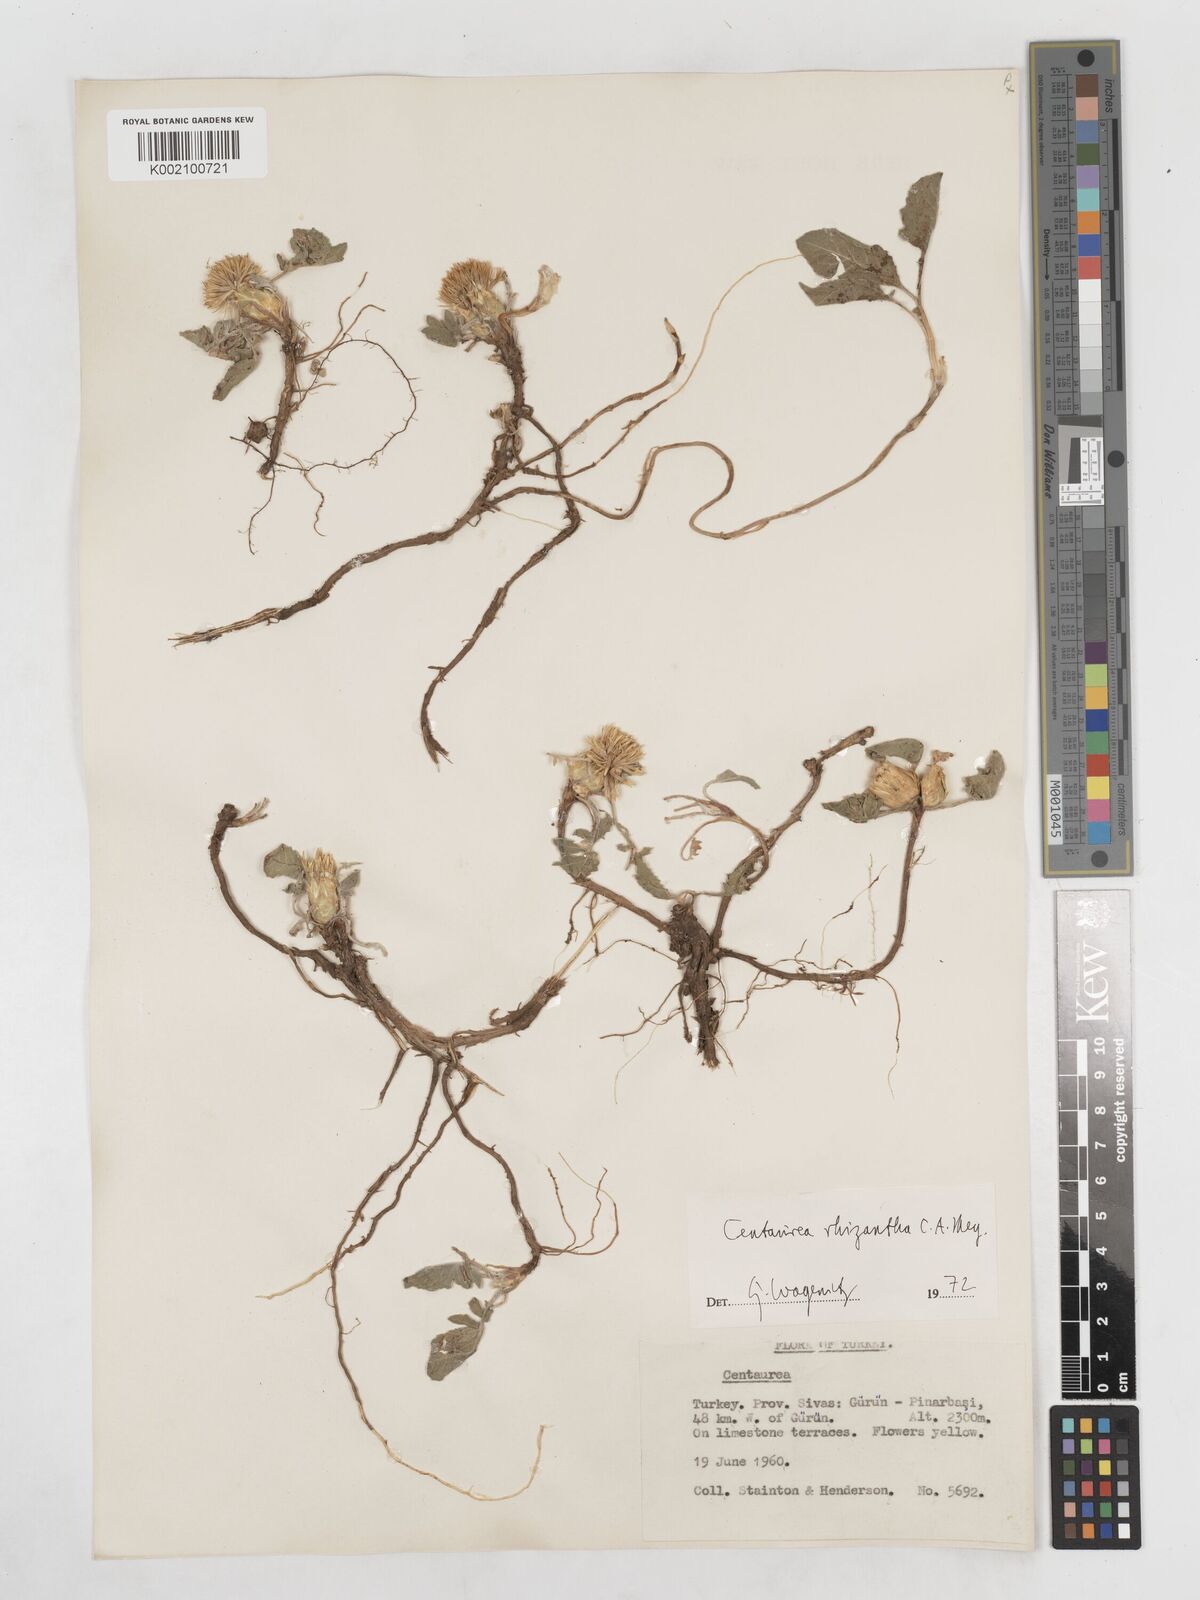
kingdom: Plantae
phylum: Tracheophyta
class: Magnoliopsida
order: Asterales
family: Asteraceae
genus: Centaurea
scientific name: Centaurea rhizantha
